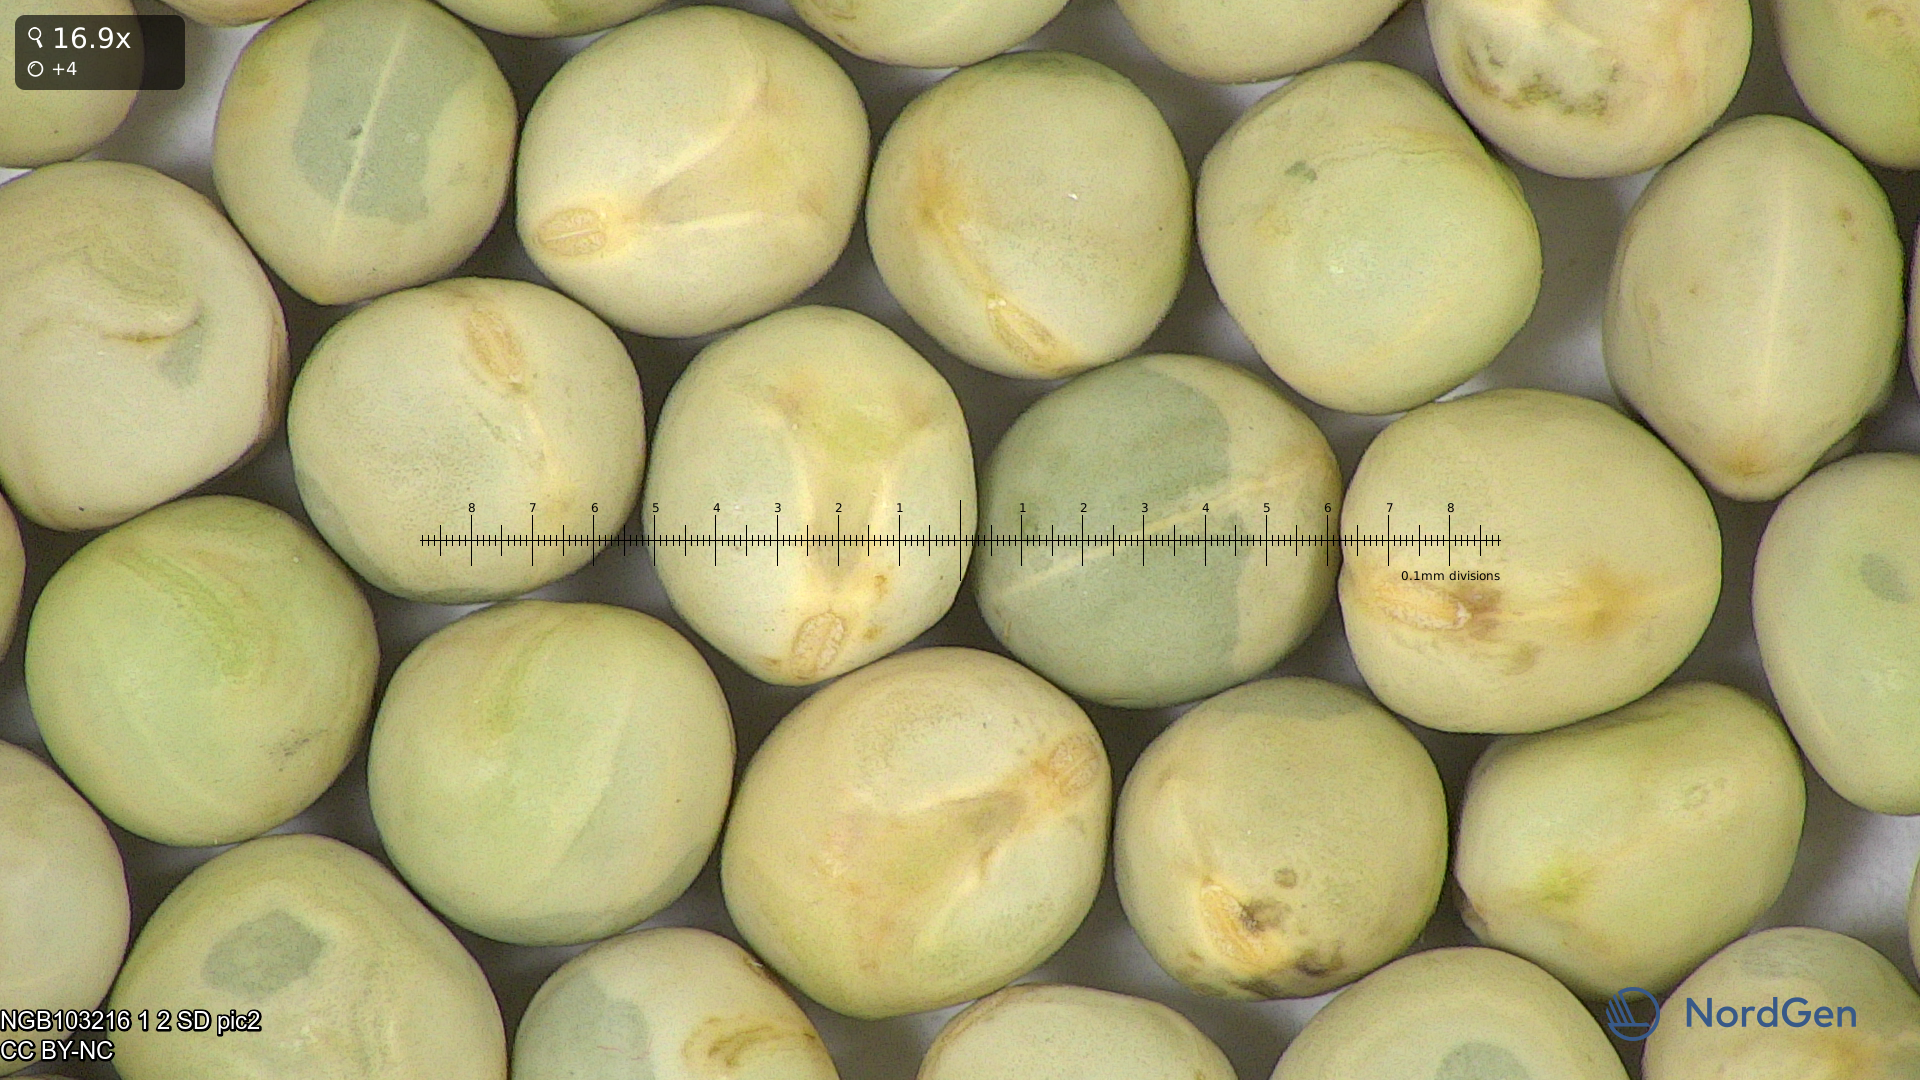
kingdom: Plantae
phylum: Tracheophyta
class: Magnoliopsida
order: Fabales
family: Fabaceae
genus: Lathyrus
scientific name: Lathyrus oleraceus
